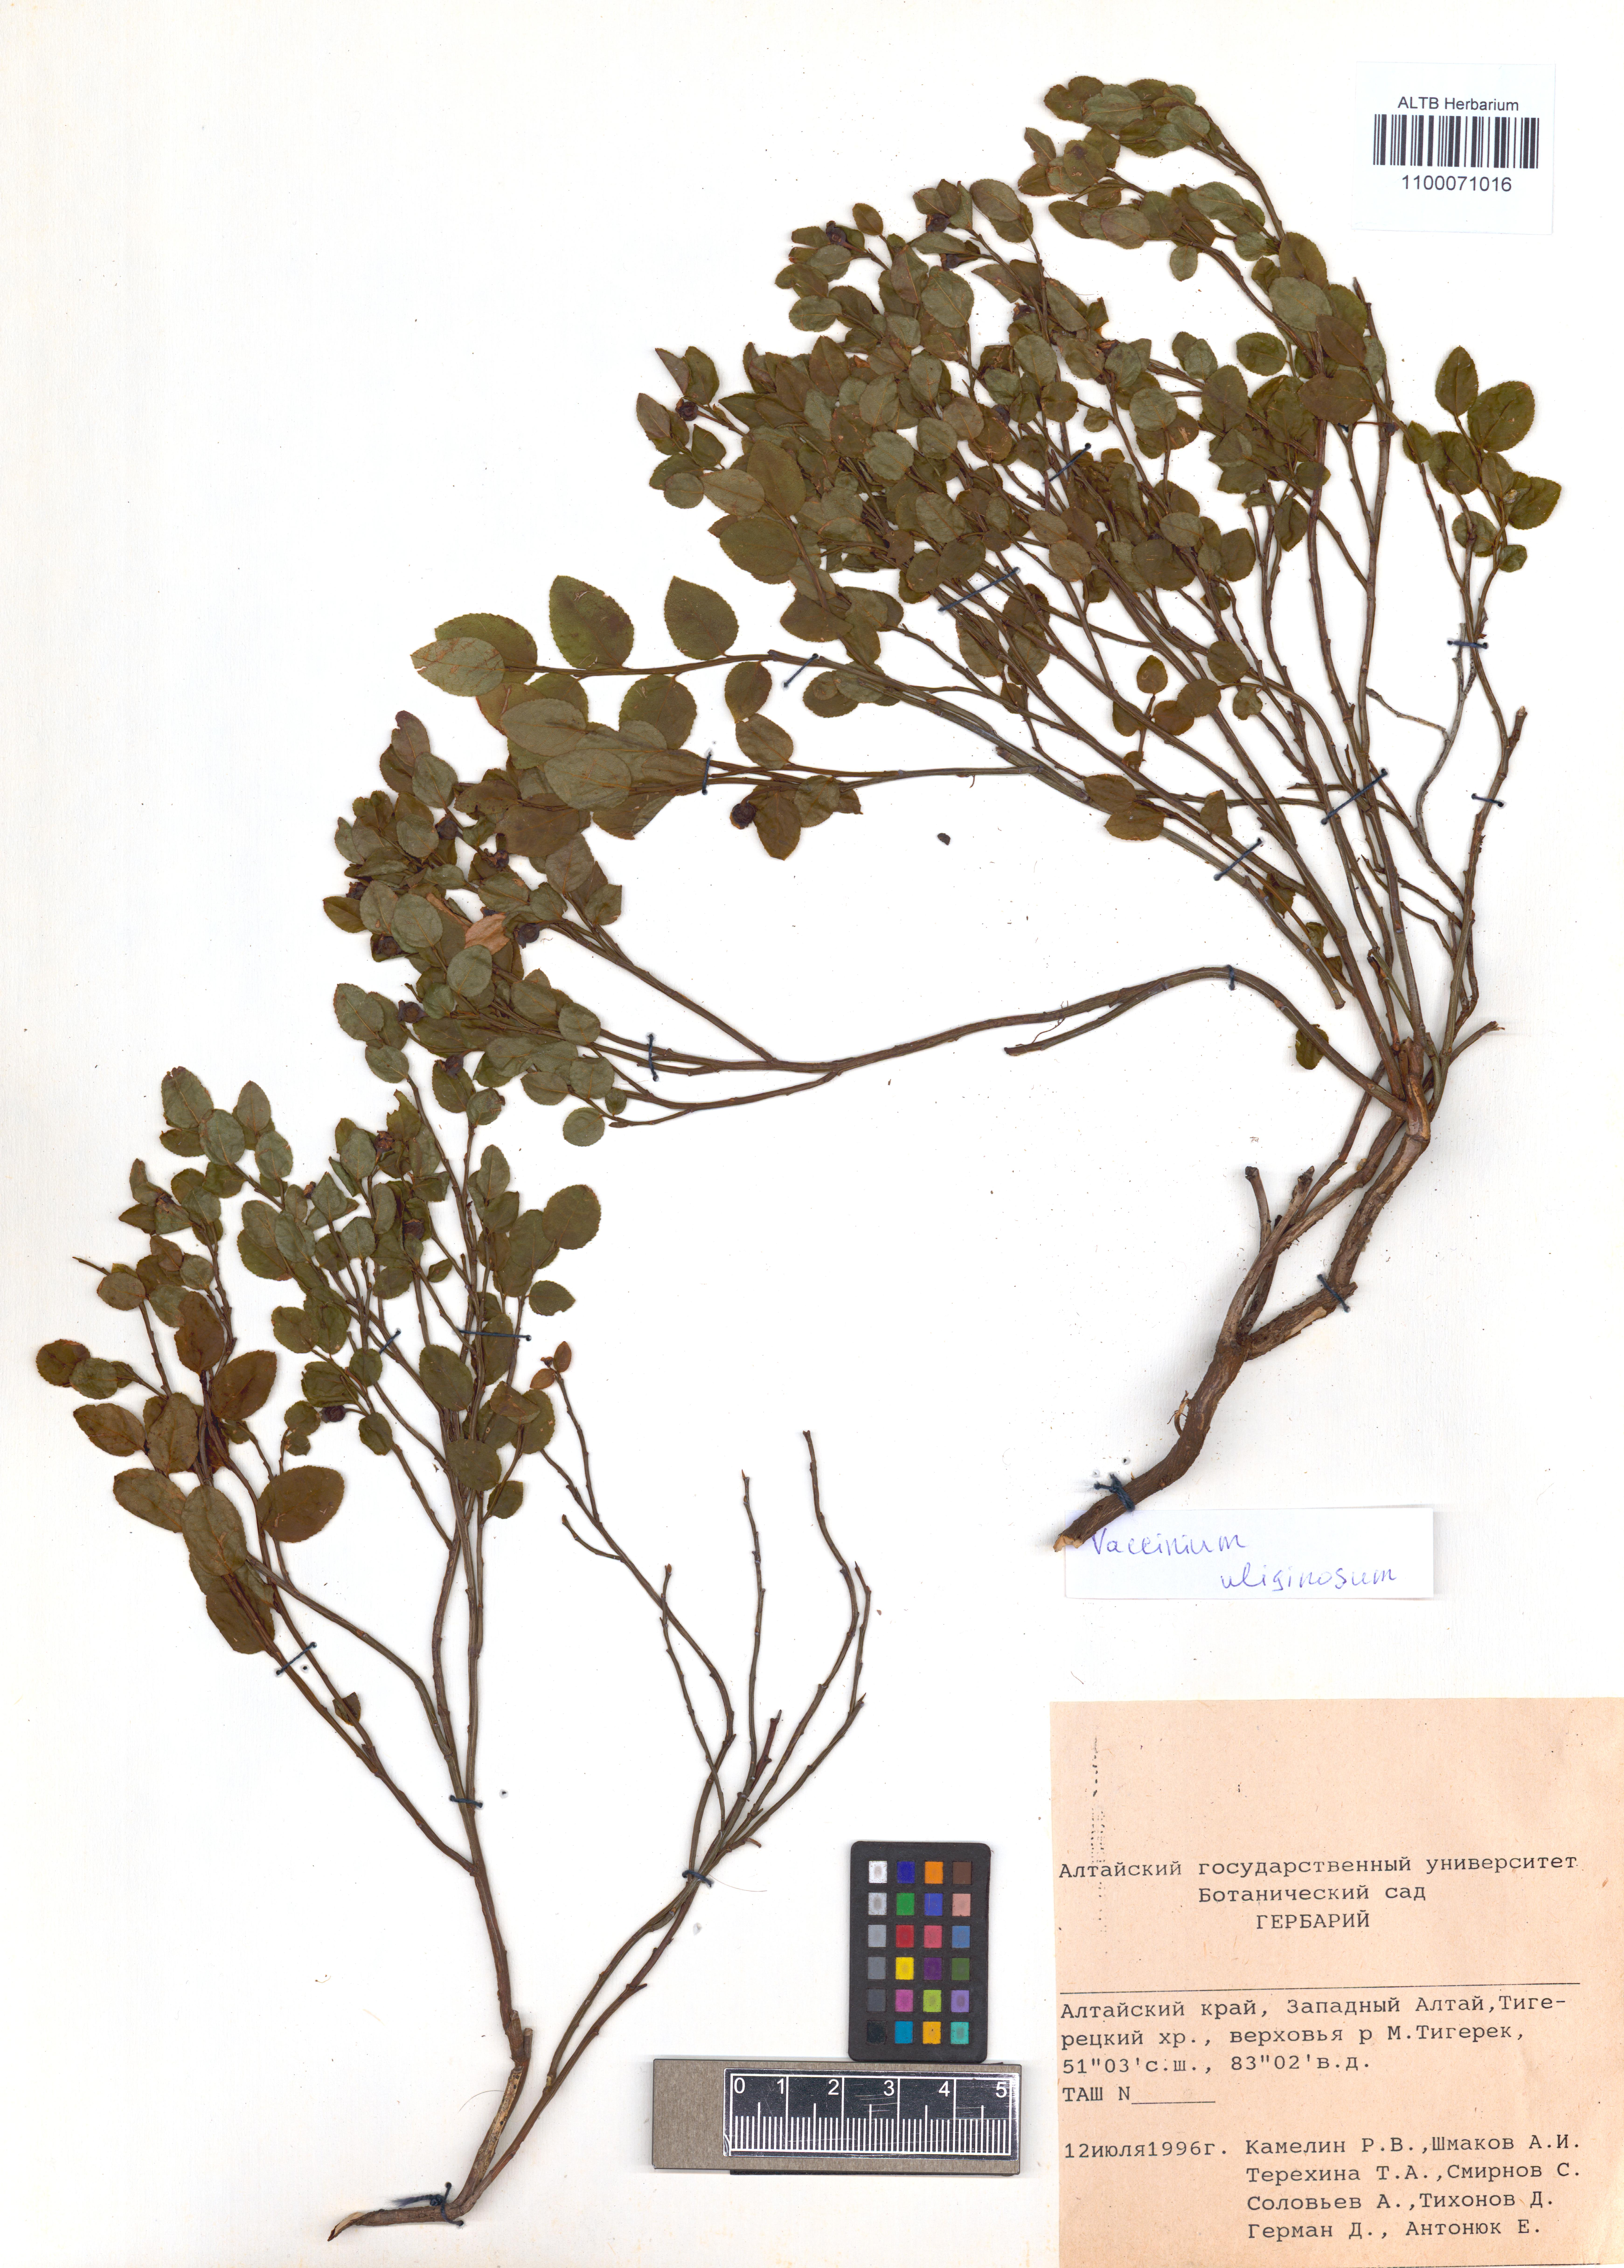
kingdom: Plantae
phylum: Tracheophyta
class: Magnoliopsida
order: Ericales
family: Ericaceae
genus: Vaccinium
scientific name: Vaccinium uliginosum
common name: Bog bilberry
